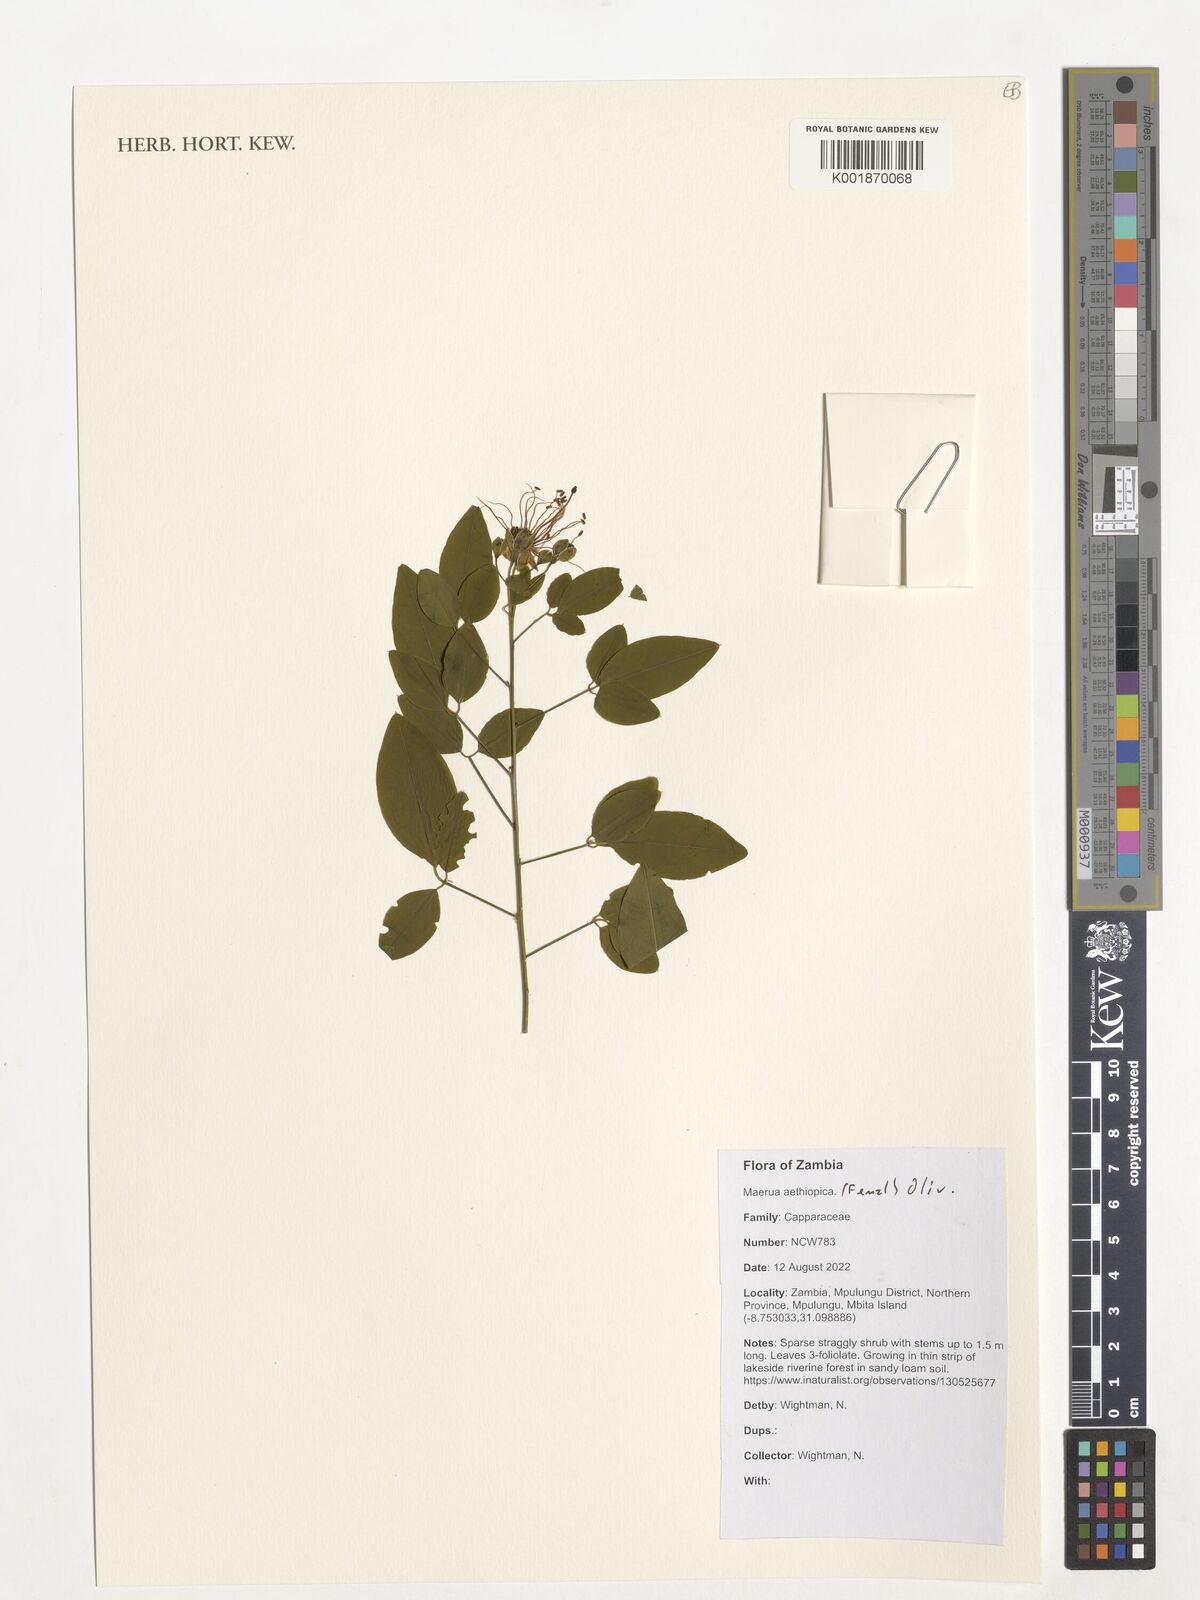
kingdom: Plantae
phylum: Tracheophyta
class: Magnoliopsida
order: Brassicales
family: Capparaceae
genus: Maerua
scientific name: Maerua aethiopica
